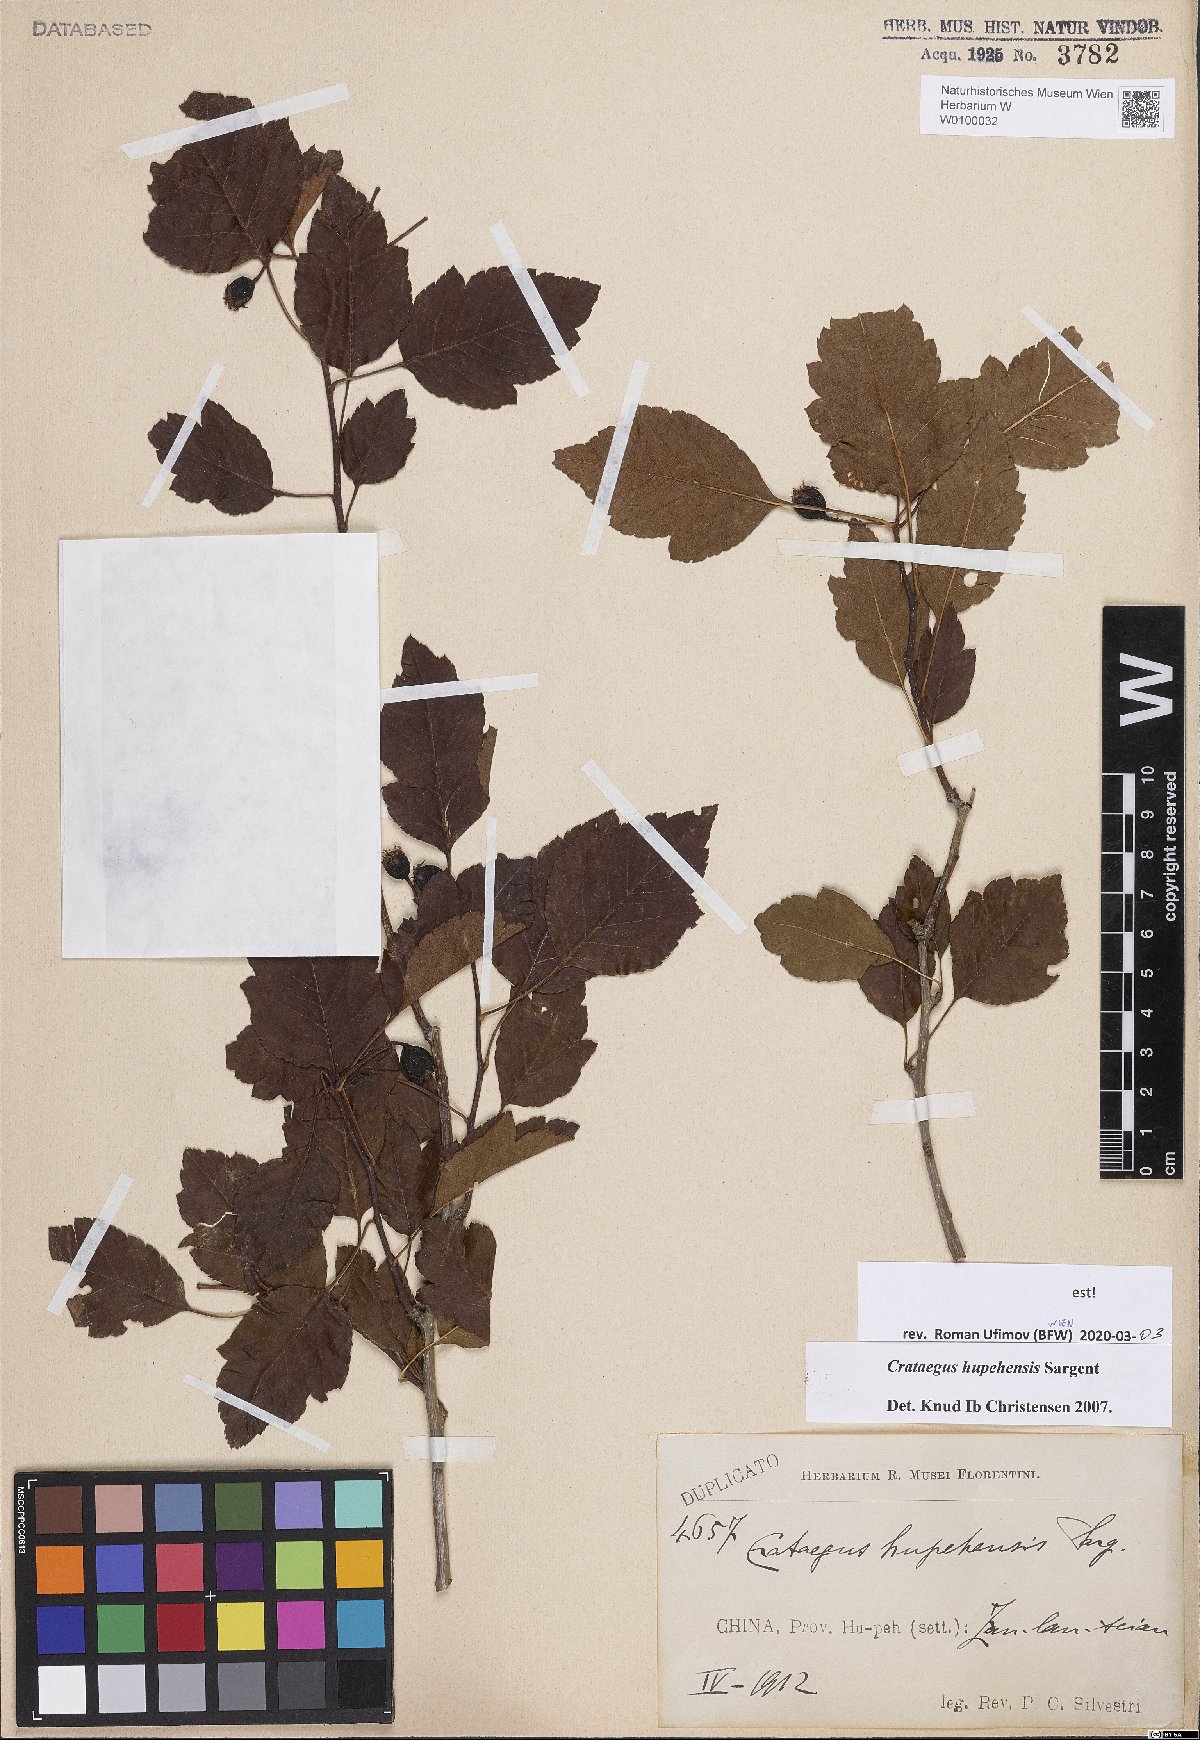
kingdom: Plantae
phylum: Tracheophyta
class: Magnoliopsida
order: Rosales
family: Rosaceae
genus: Crataegus
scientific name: Crataegus hupehensis
